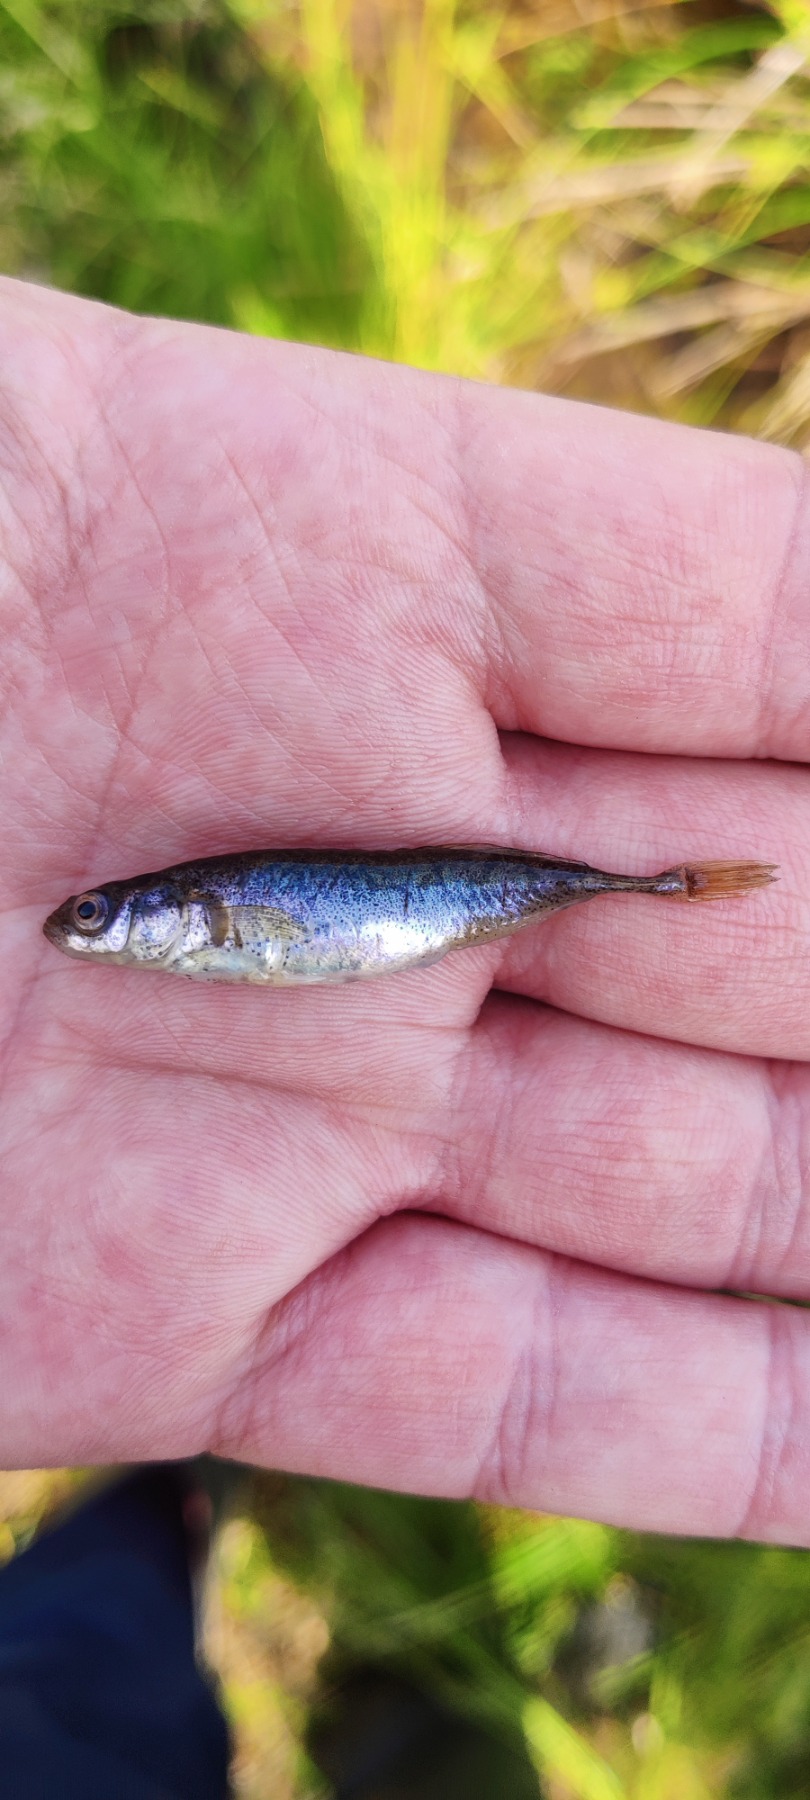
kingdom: Animalia
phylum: Chordata
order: Gasterosteiformes
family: Gasterosteidae
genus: Pungitius
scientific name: Pungitius pungitius
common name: Nipigget hundestejle
